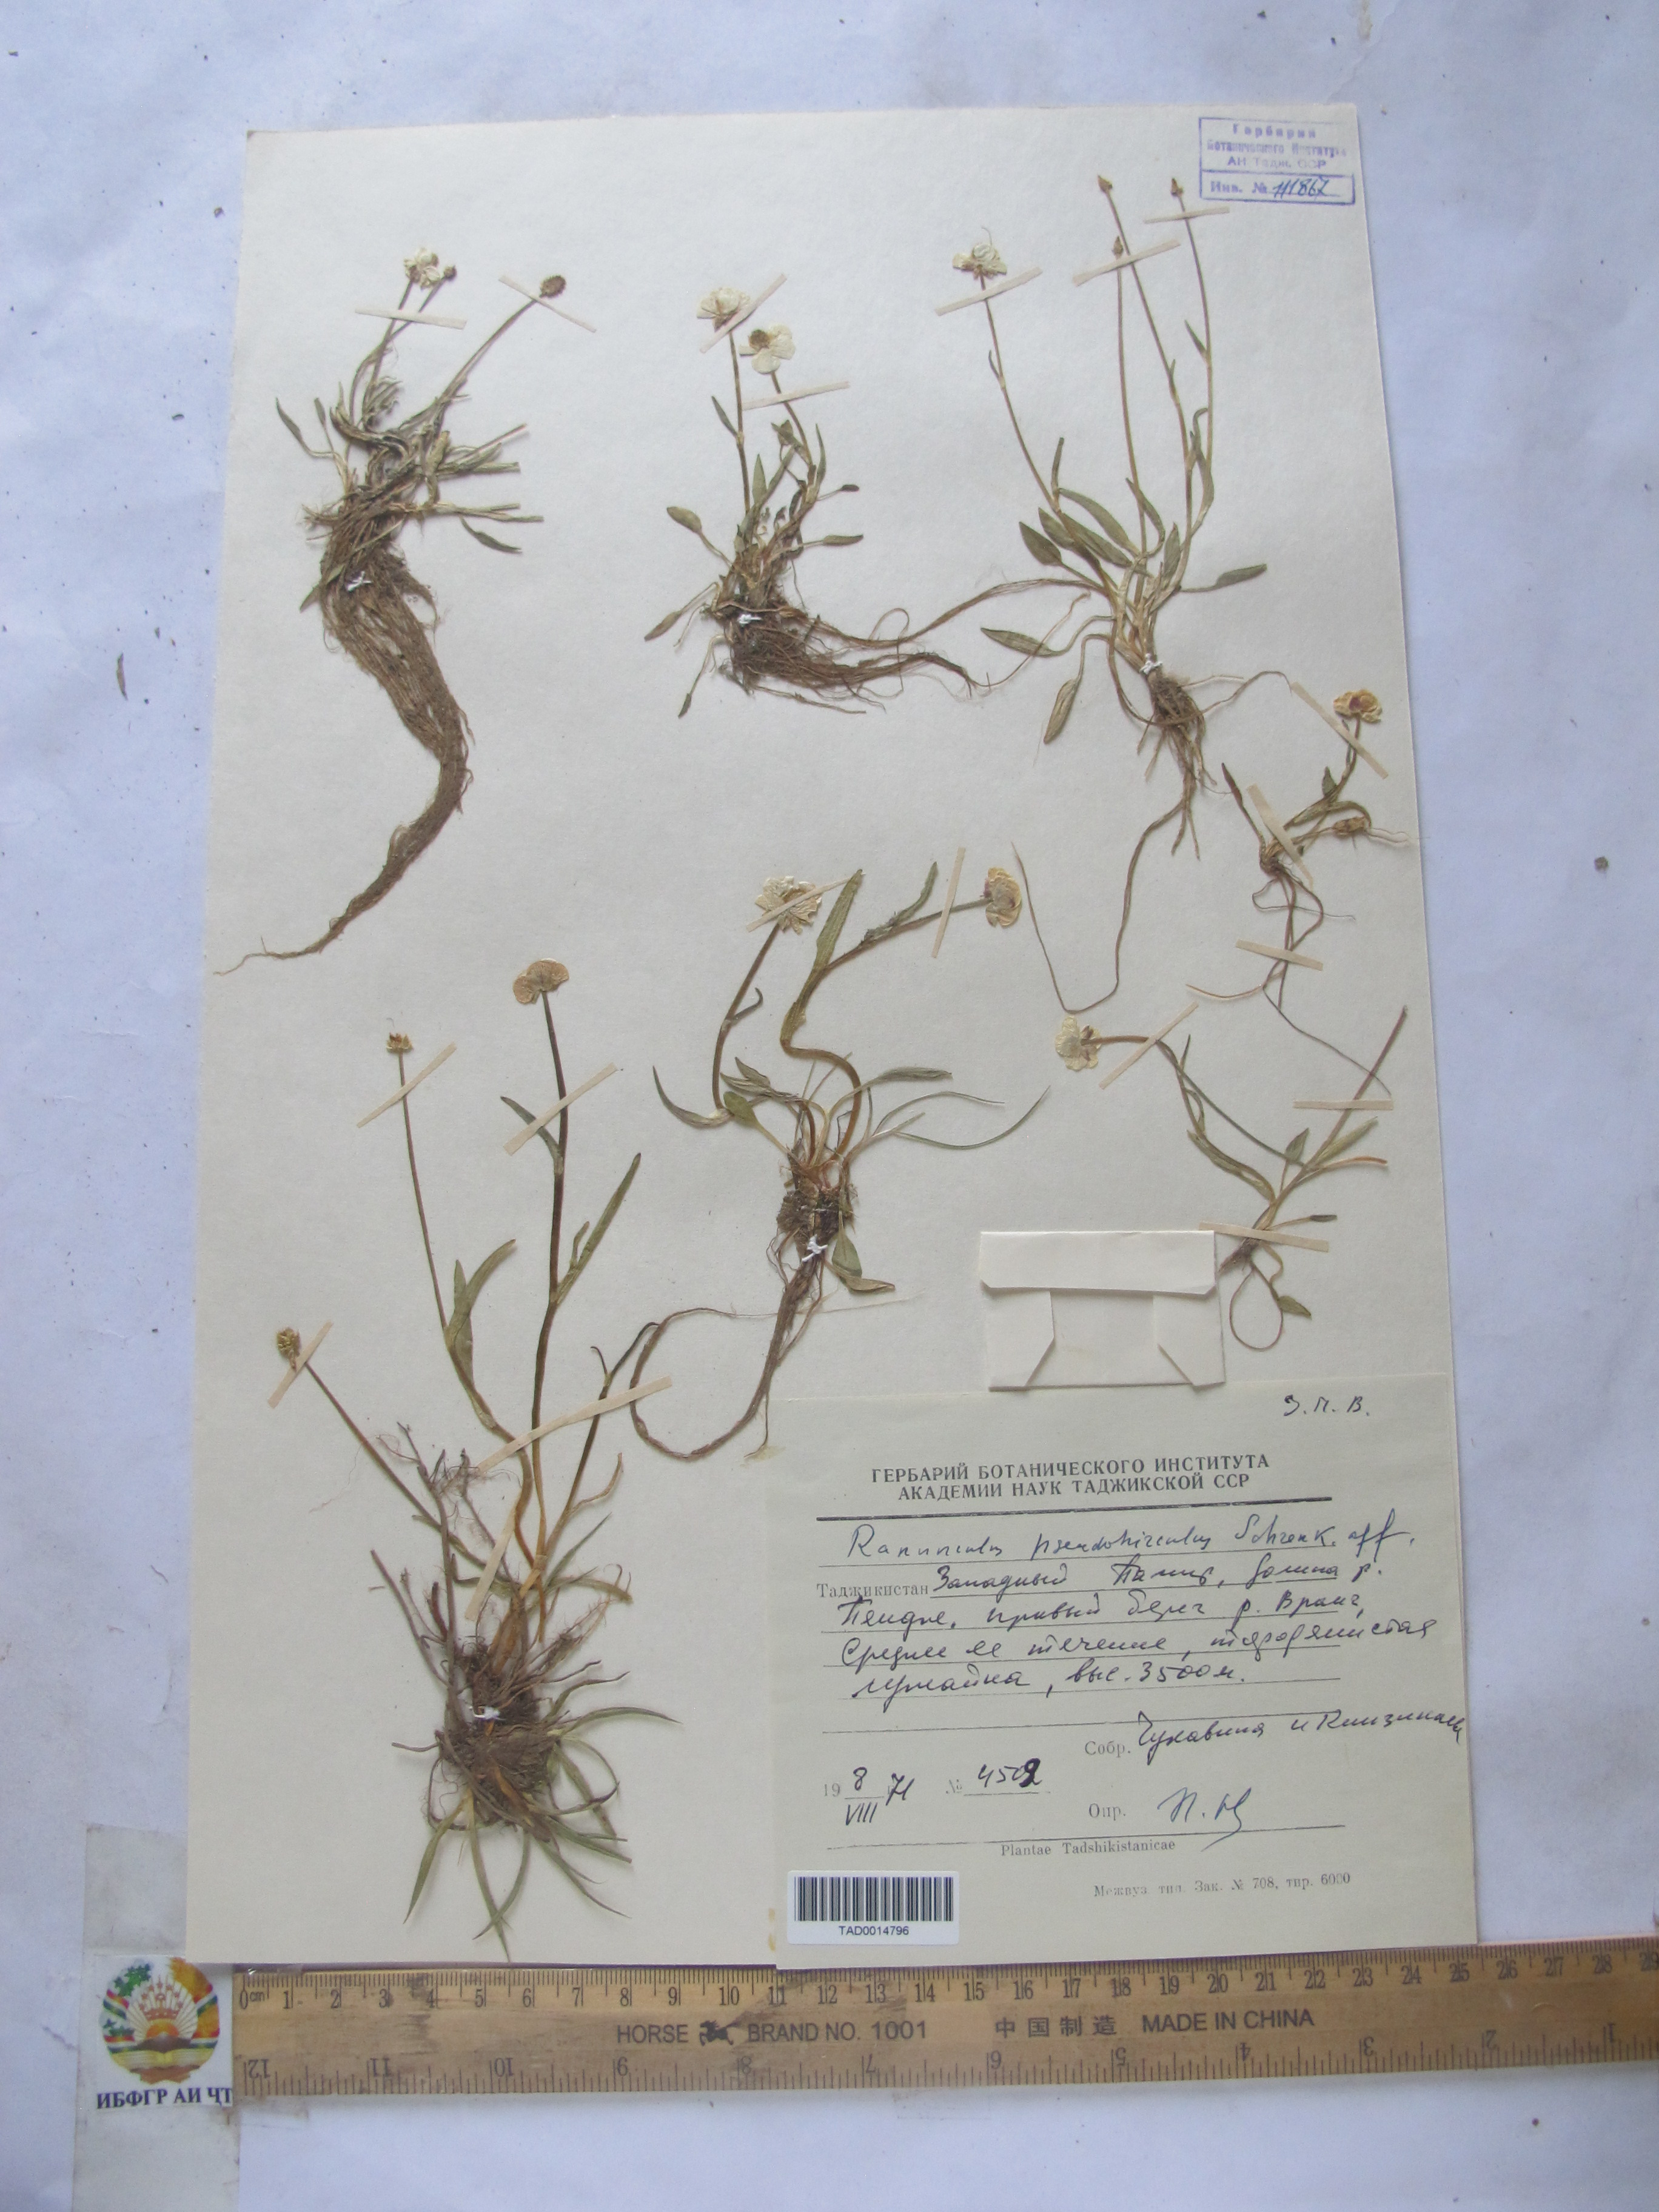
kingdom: Plantae
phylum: Tracheophyta
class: Magnoliopsida
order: Ranunculales
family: Ranunculaceae
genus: Ranunculus
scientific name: Ranunculus pseudohirculus
